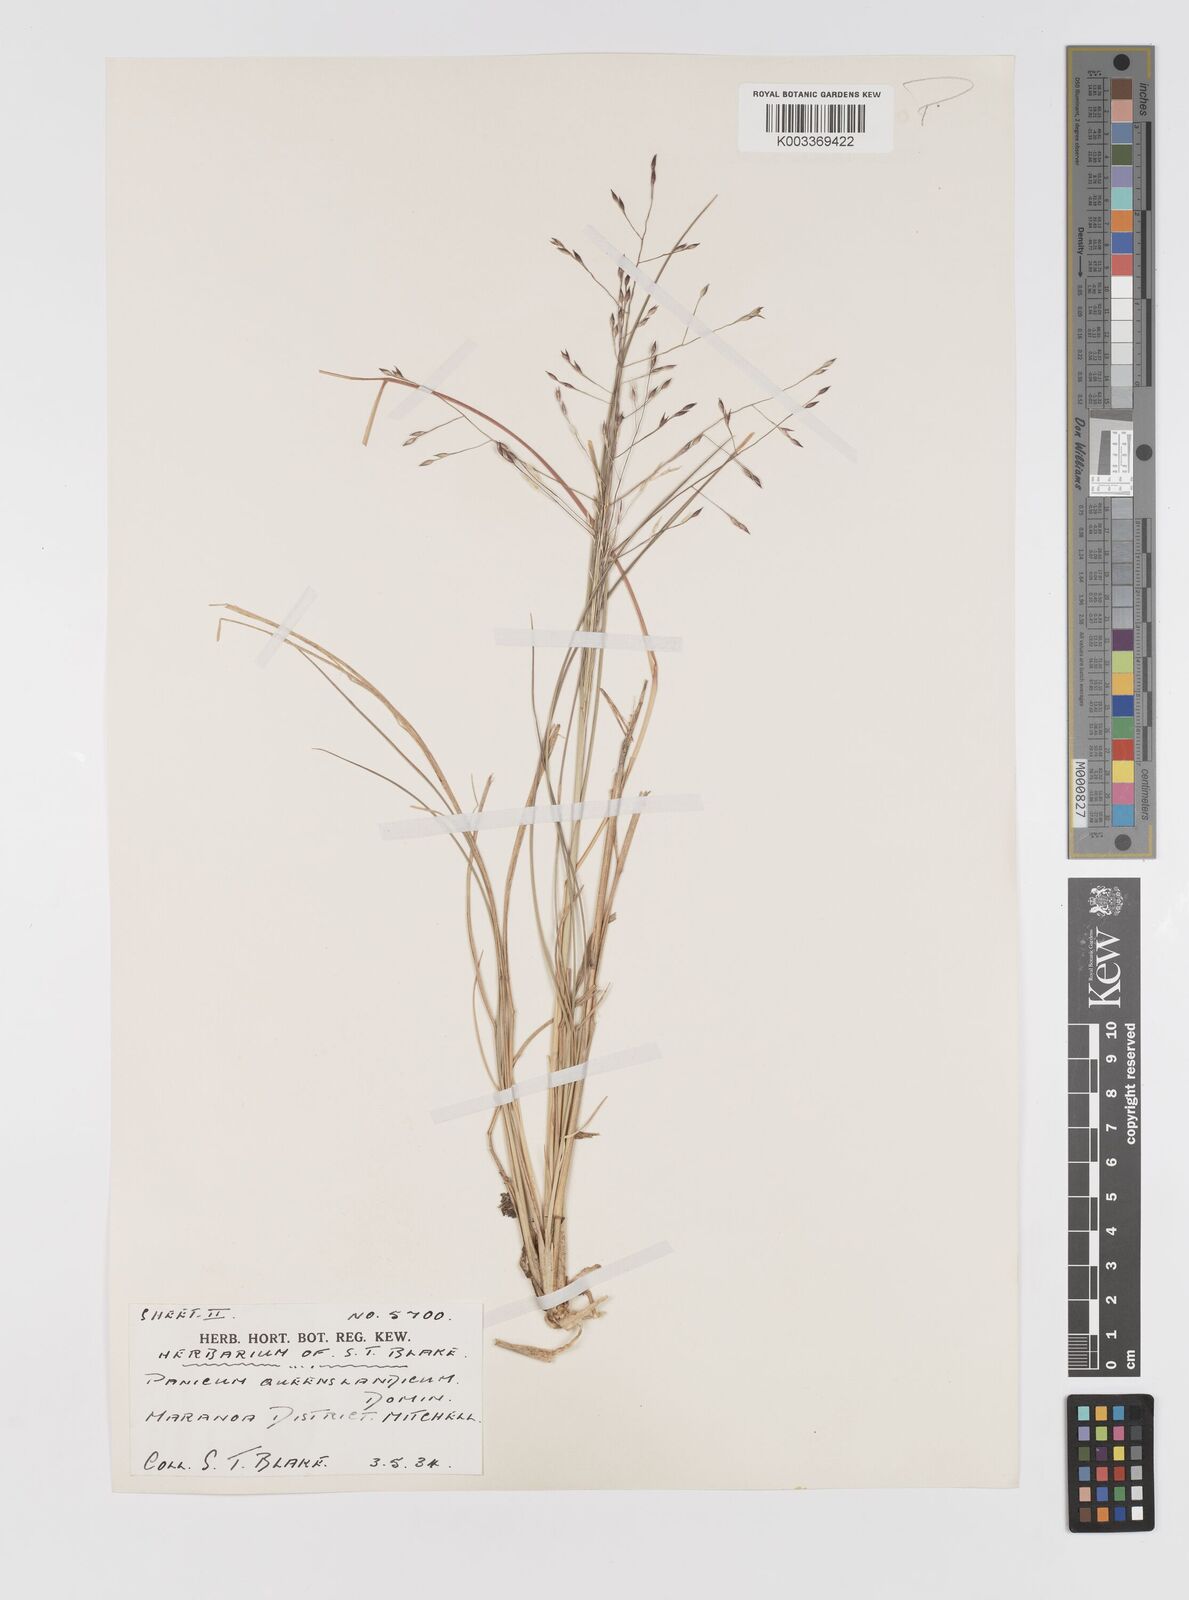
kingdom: Plantae
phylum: Tracheophyta
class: Liliopsida
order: Poales
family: Poaceae
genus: Panicum
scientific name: Panicum queenslandicum
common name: Yabila grass
